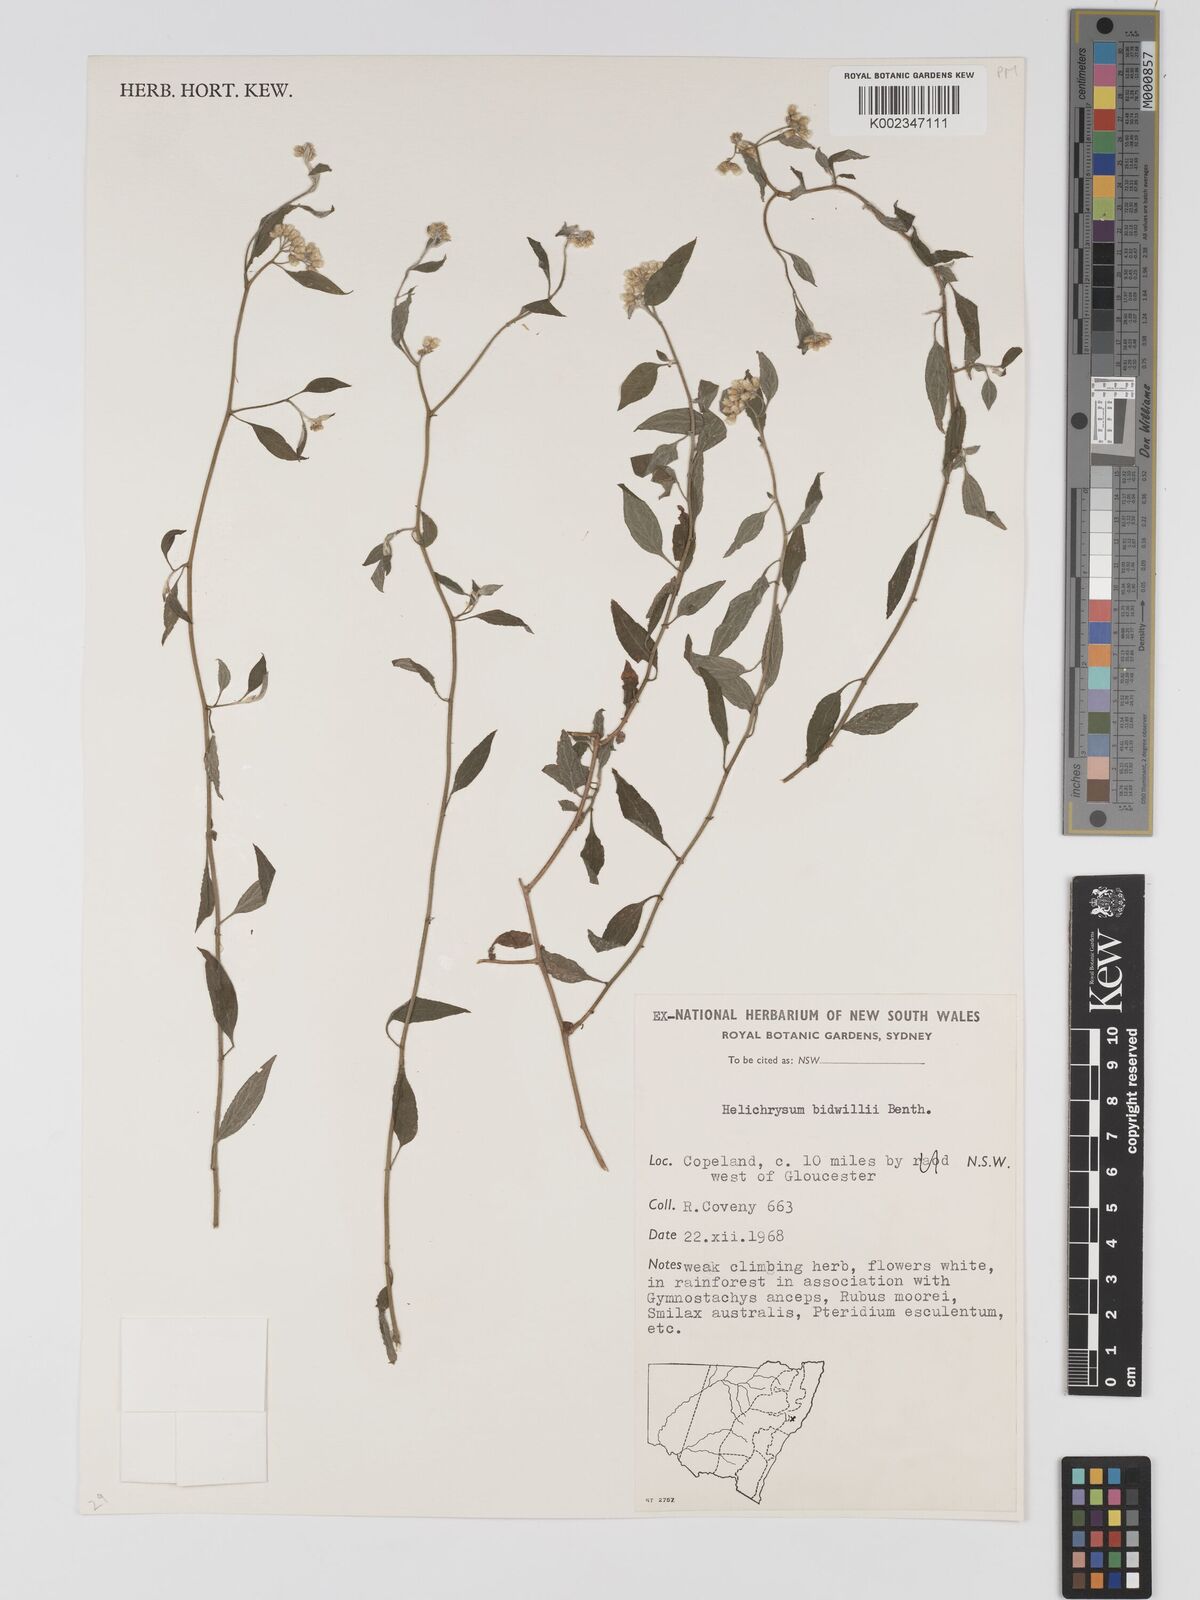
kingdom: Plantae
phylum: Tracheophyta
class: Magnoliopsida
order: Asterales
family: Asteraceae
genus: Ozothamnus
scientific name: Ozothamnus bidwillii
